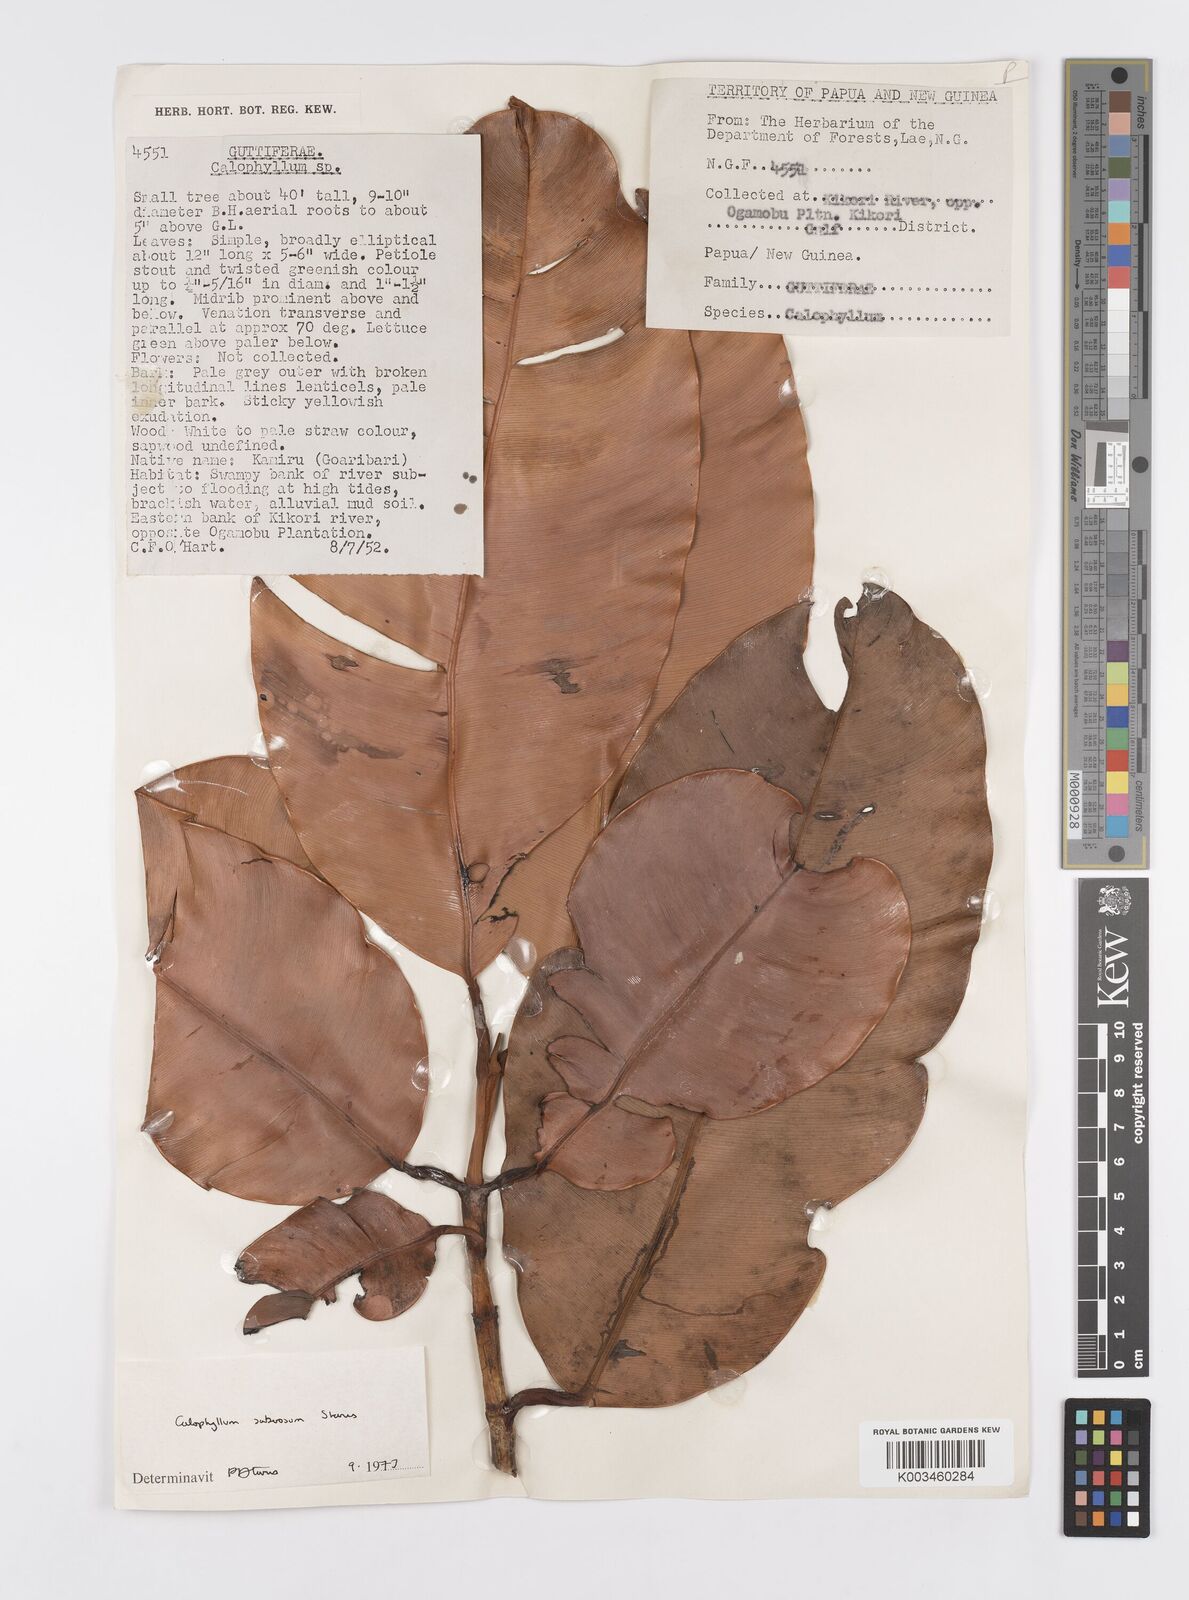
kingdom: Plantae
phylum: Tracheophyta
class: Magnoliopsida
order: Malpighiales
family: Calophyllaceae
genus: Calophyllum
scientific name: Calophyllum suberosum
